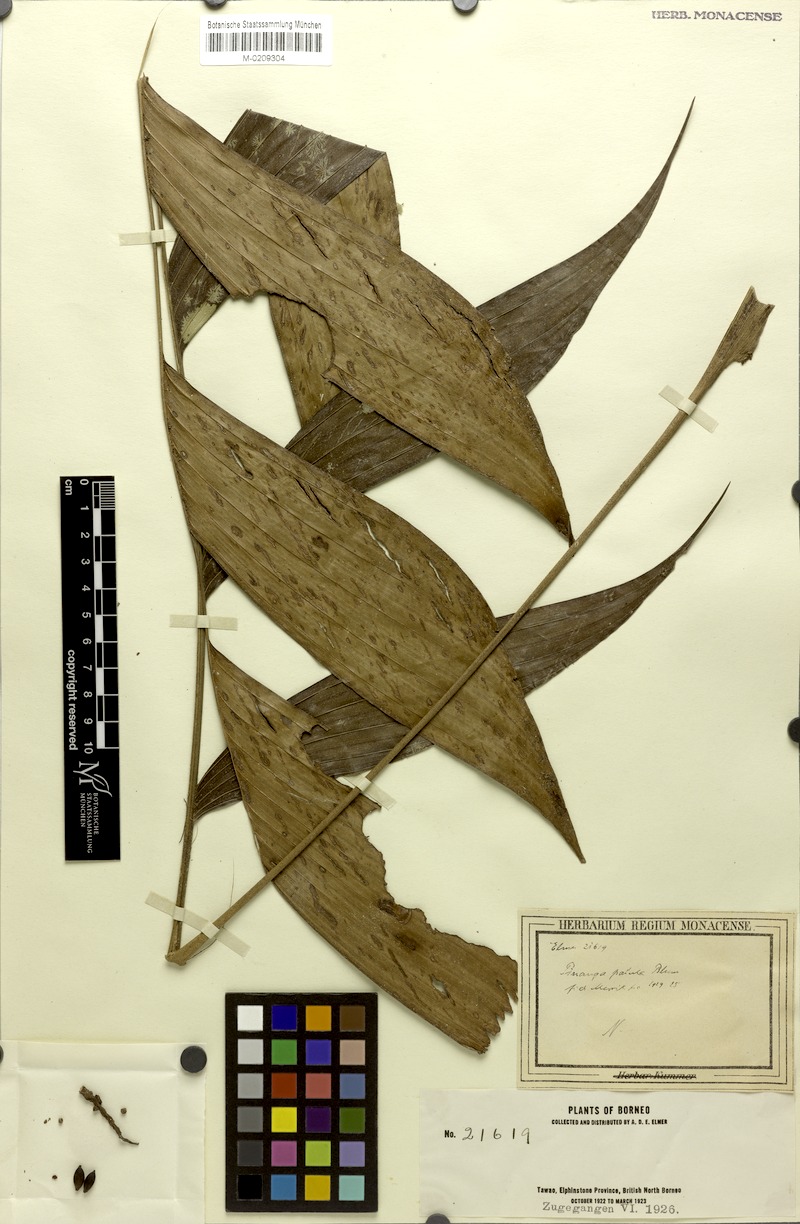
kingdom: Plantae
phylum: Tracheophyta
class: Liliopsida
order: Arecales
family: Arecaceae
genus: Pinanga
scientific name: Pinanga patula
